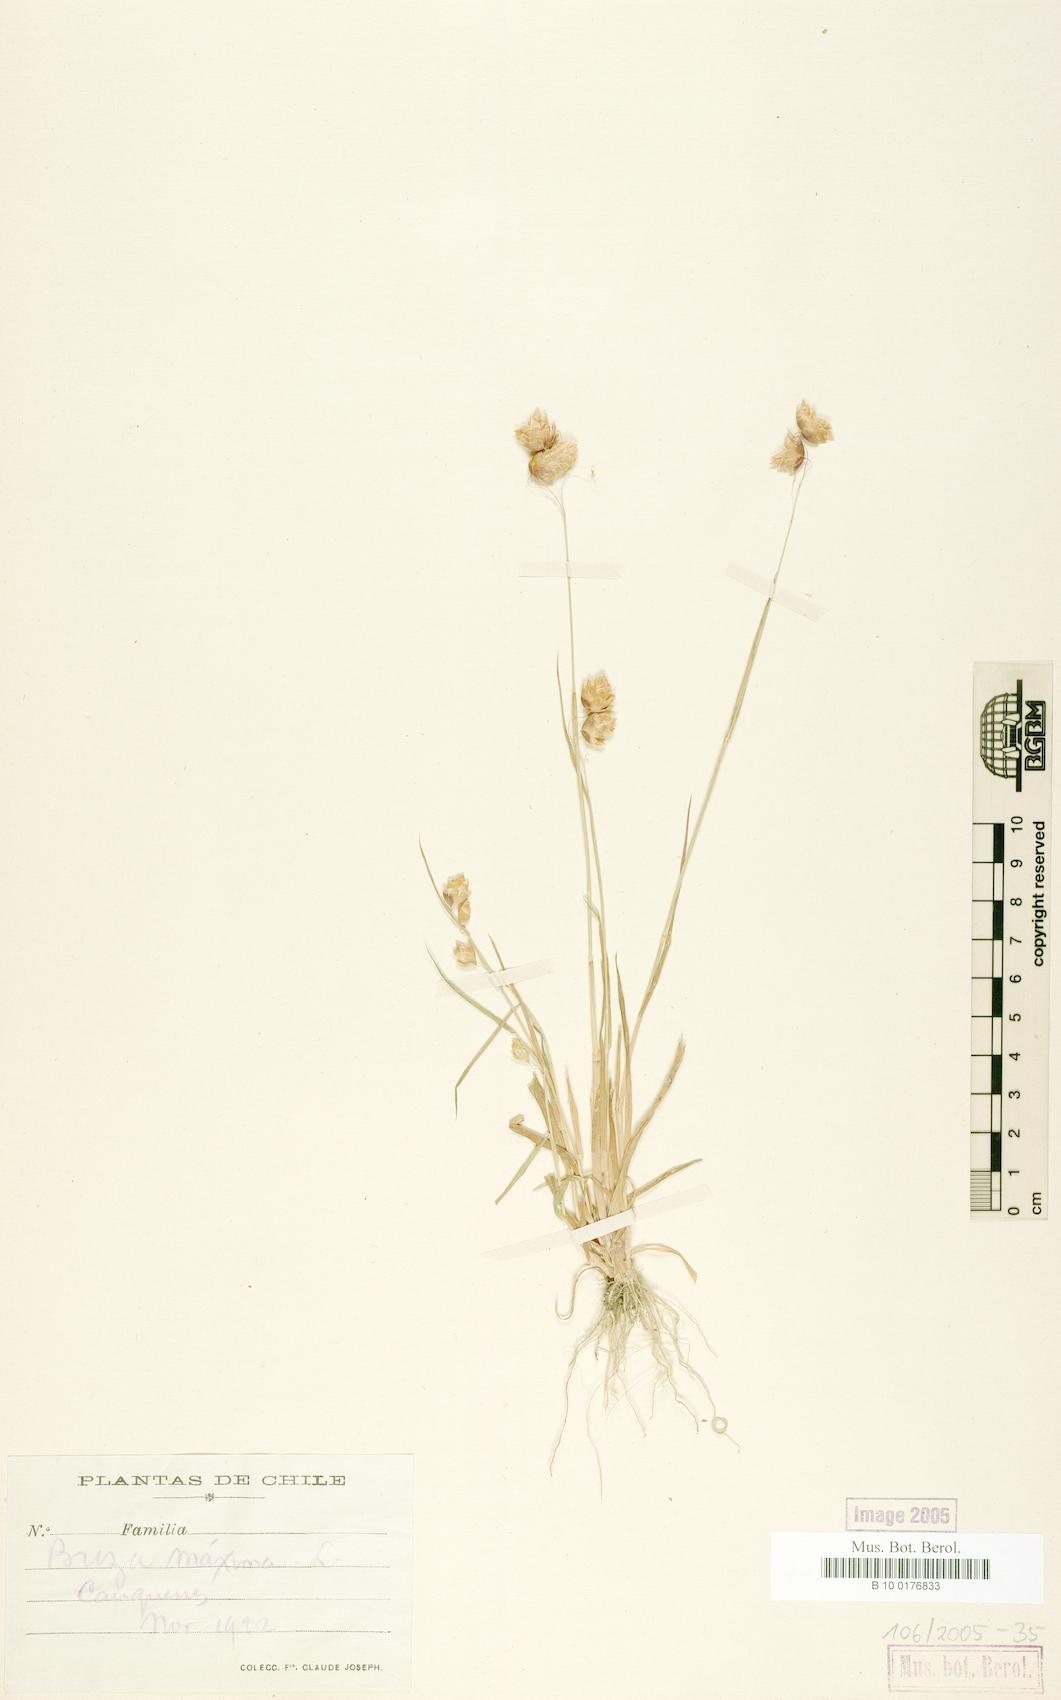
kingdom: Plantae
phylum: Tracheophyta
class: Liliopsida
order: Poales
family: Poaceae
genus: Briza
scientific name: Briza maxima
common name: Big quakinggrass
